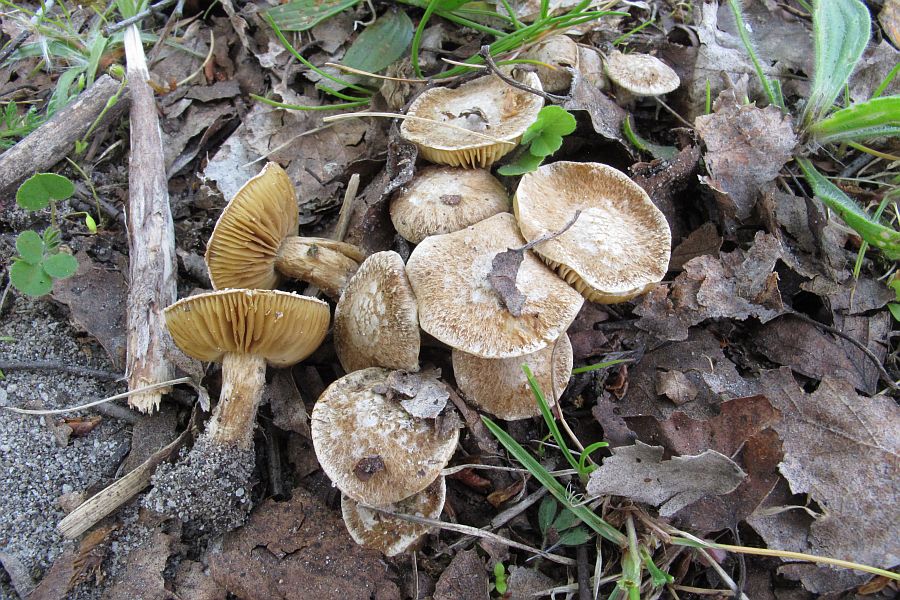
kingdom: Fungi
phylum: Basidiomycota
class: Agaricomycetes
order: Agaricales
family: Inocybaceae
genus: Inocybe
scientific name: Inocybe dulcamara
